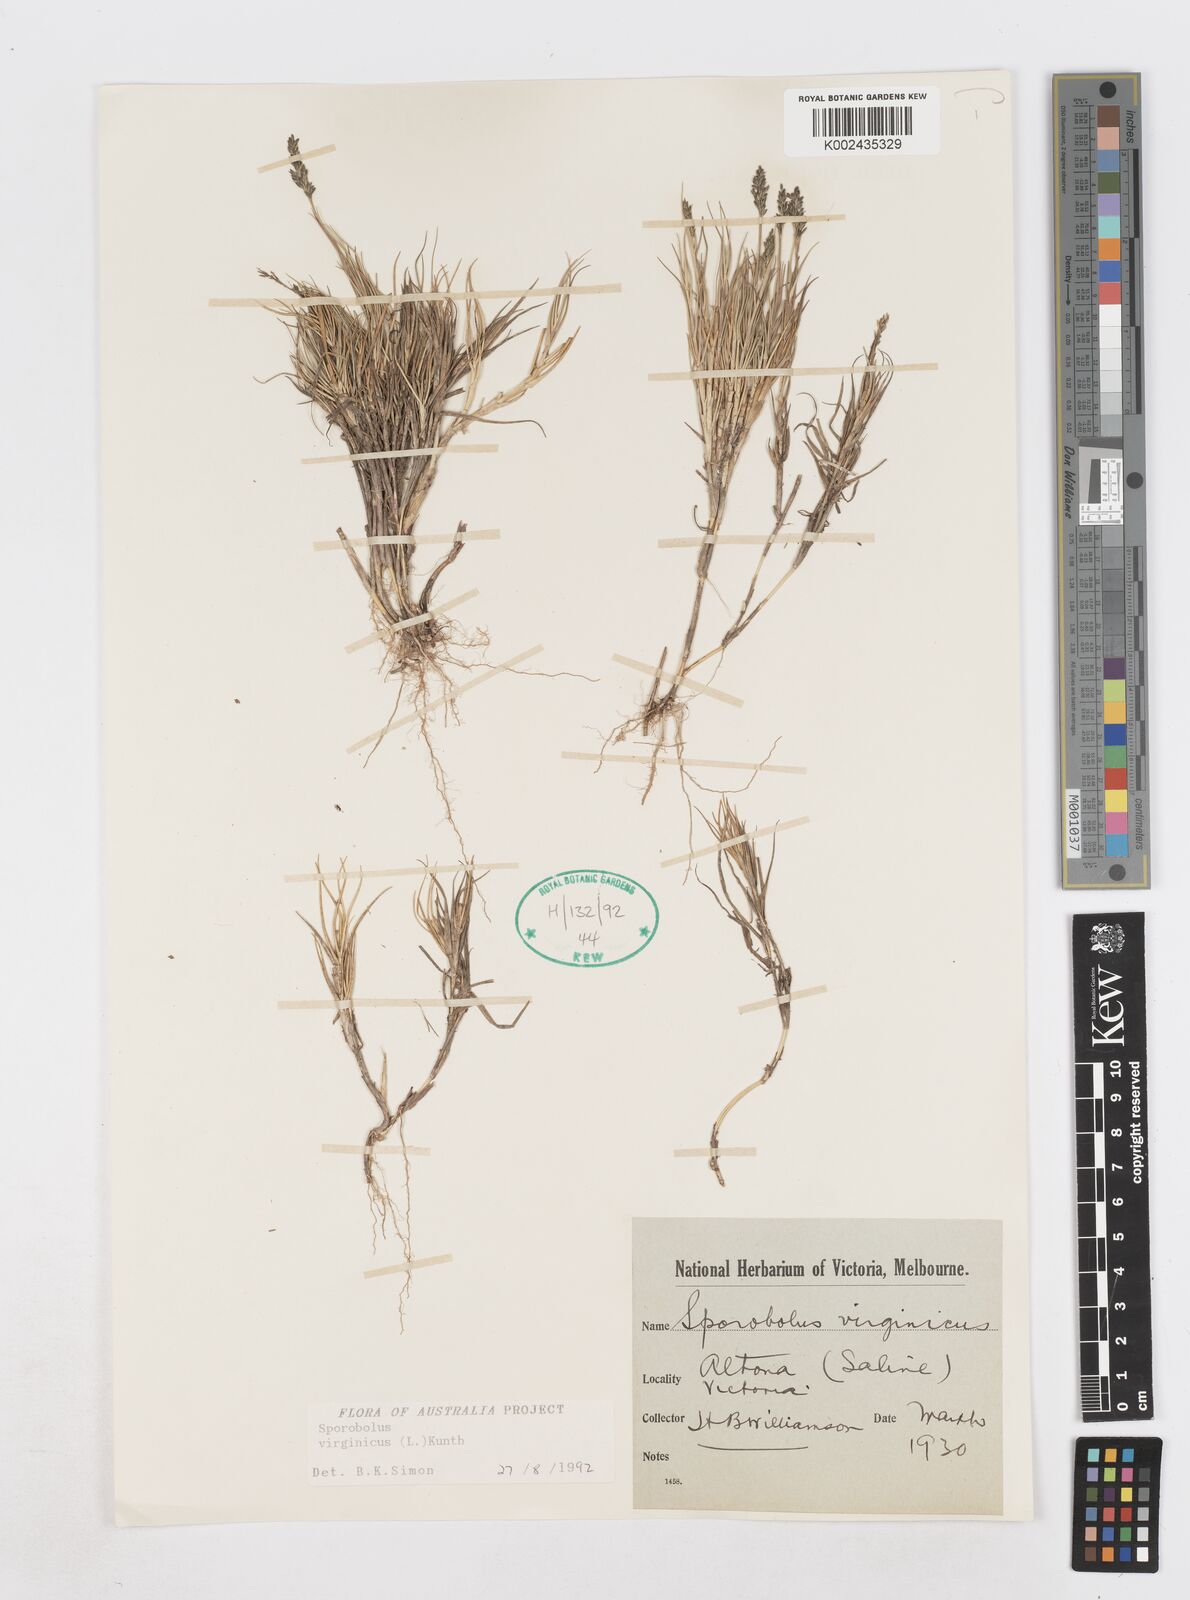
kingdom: Plantae
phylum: Tracheophyta
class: Liliopsida
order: Poales
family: Poaceae
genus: Sporobolus
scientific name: Sporobolus virginicus
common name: Beach dropseed
